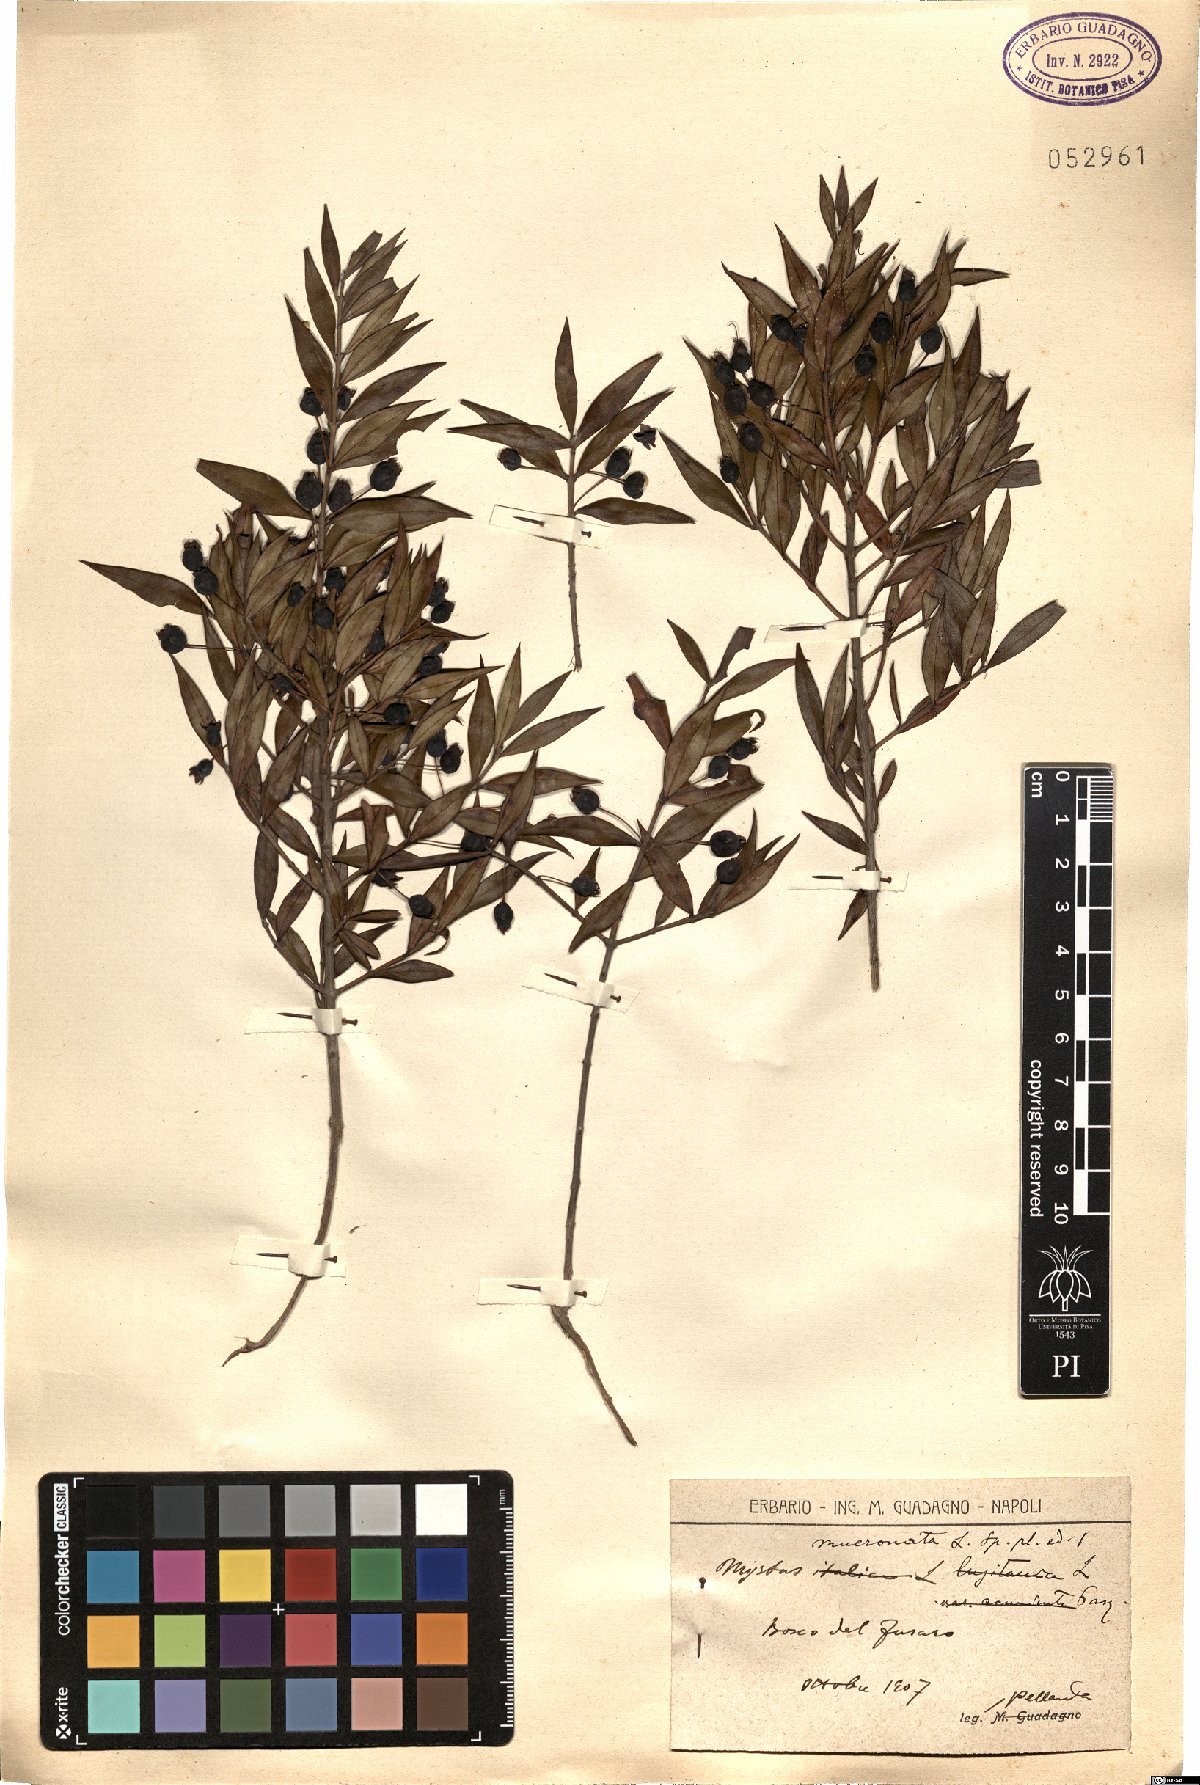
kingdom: Plantae
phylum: Tracheophyta
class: Magnoliopsida
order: Myrtales
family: Myrtaceae
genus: Psidium
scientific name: Psidium salutare
